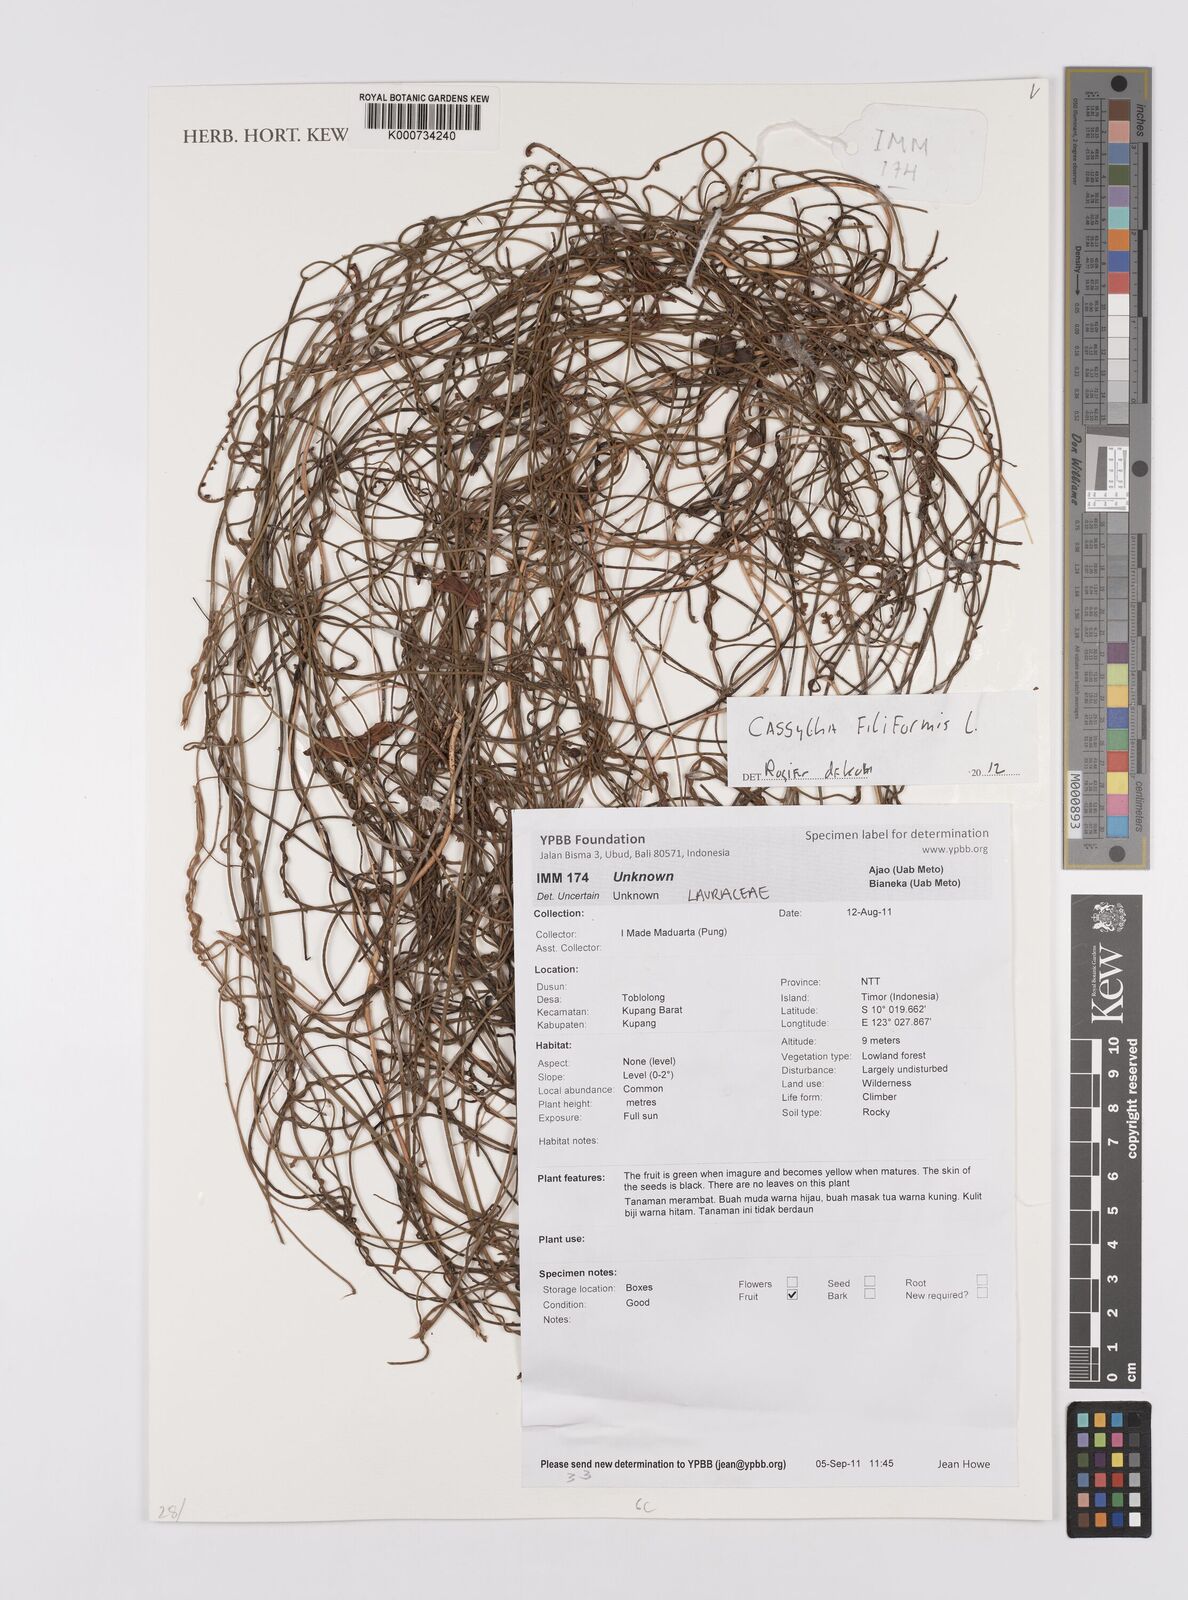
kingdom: Plantae
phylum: Tracheophyta
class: Magnoliopsida
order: Laurales
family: Lauraceae
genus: Cassytha
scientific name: Cassytha filiformis
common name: Dodder-laurel
